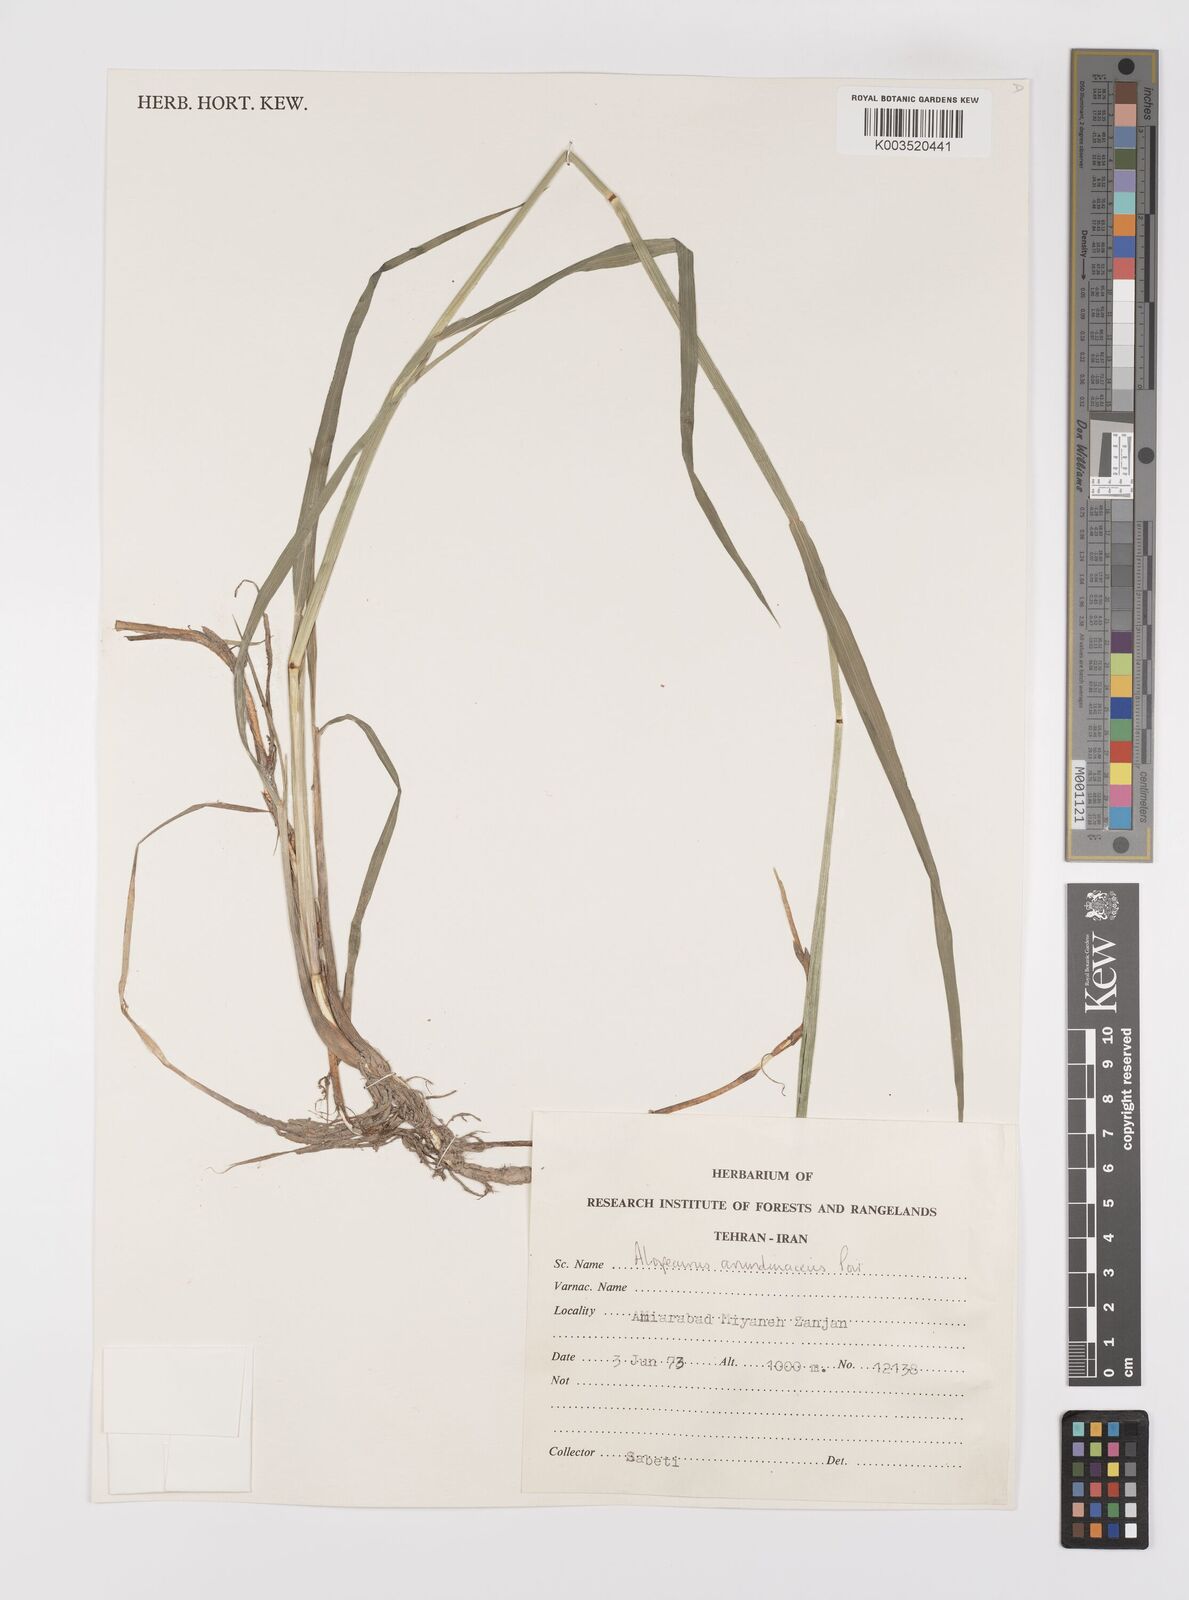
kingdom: Plantae
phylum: Tracheophyta
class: Liliopsida
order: Poales
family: Poaceae
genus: Alopecurus
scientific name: Alopecurus arundinaceus
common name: Creeping meadow foxtail
